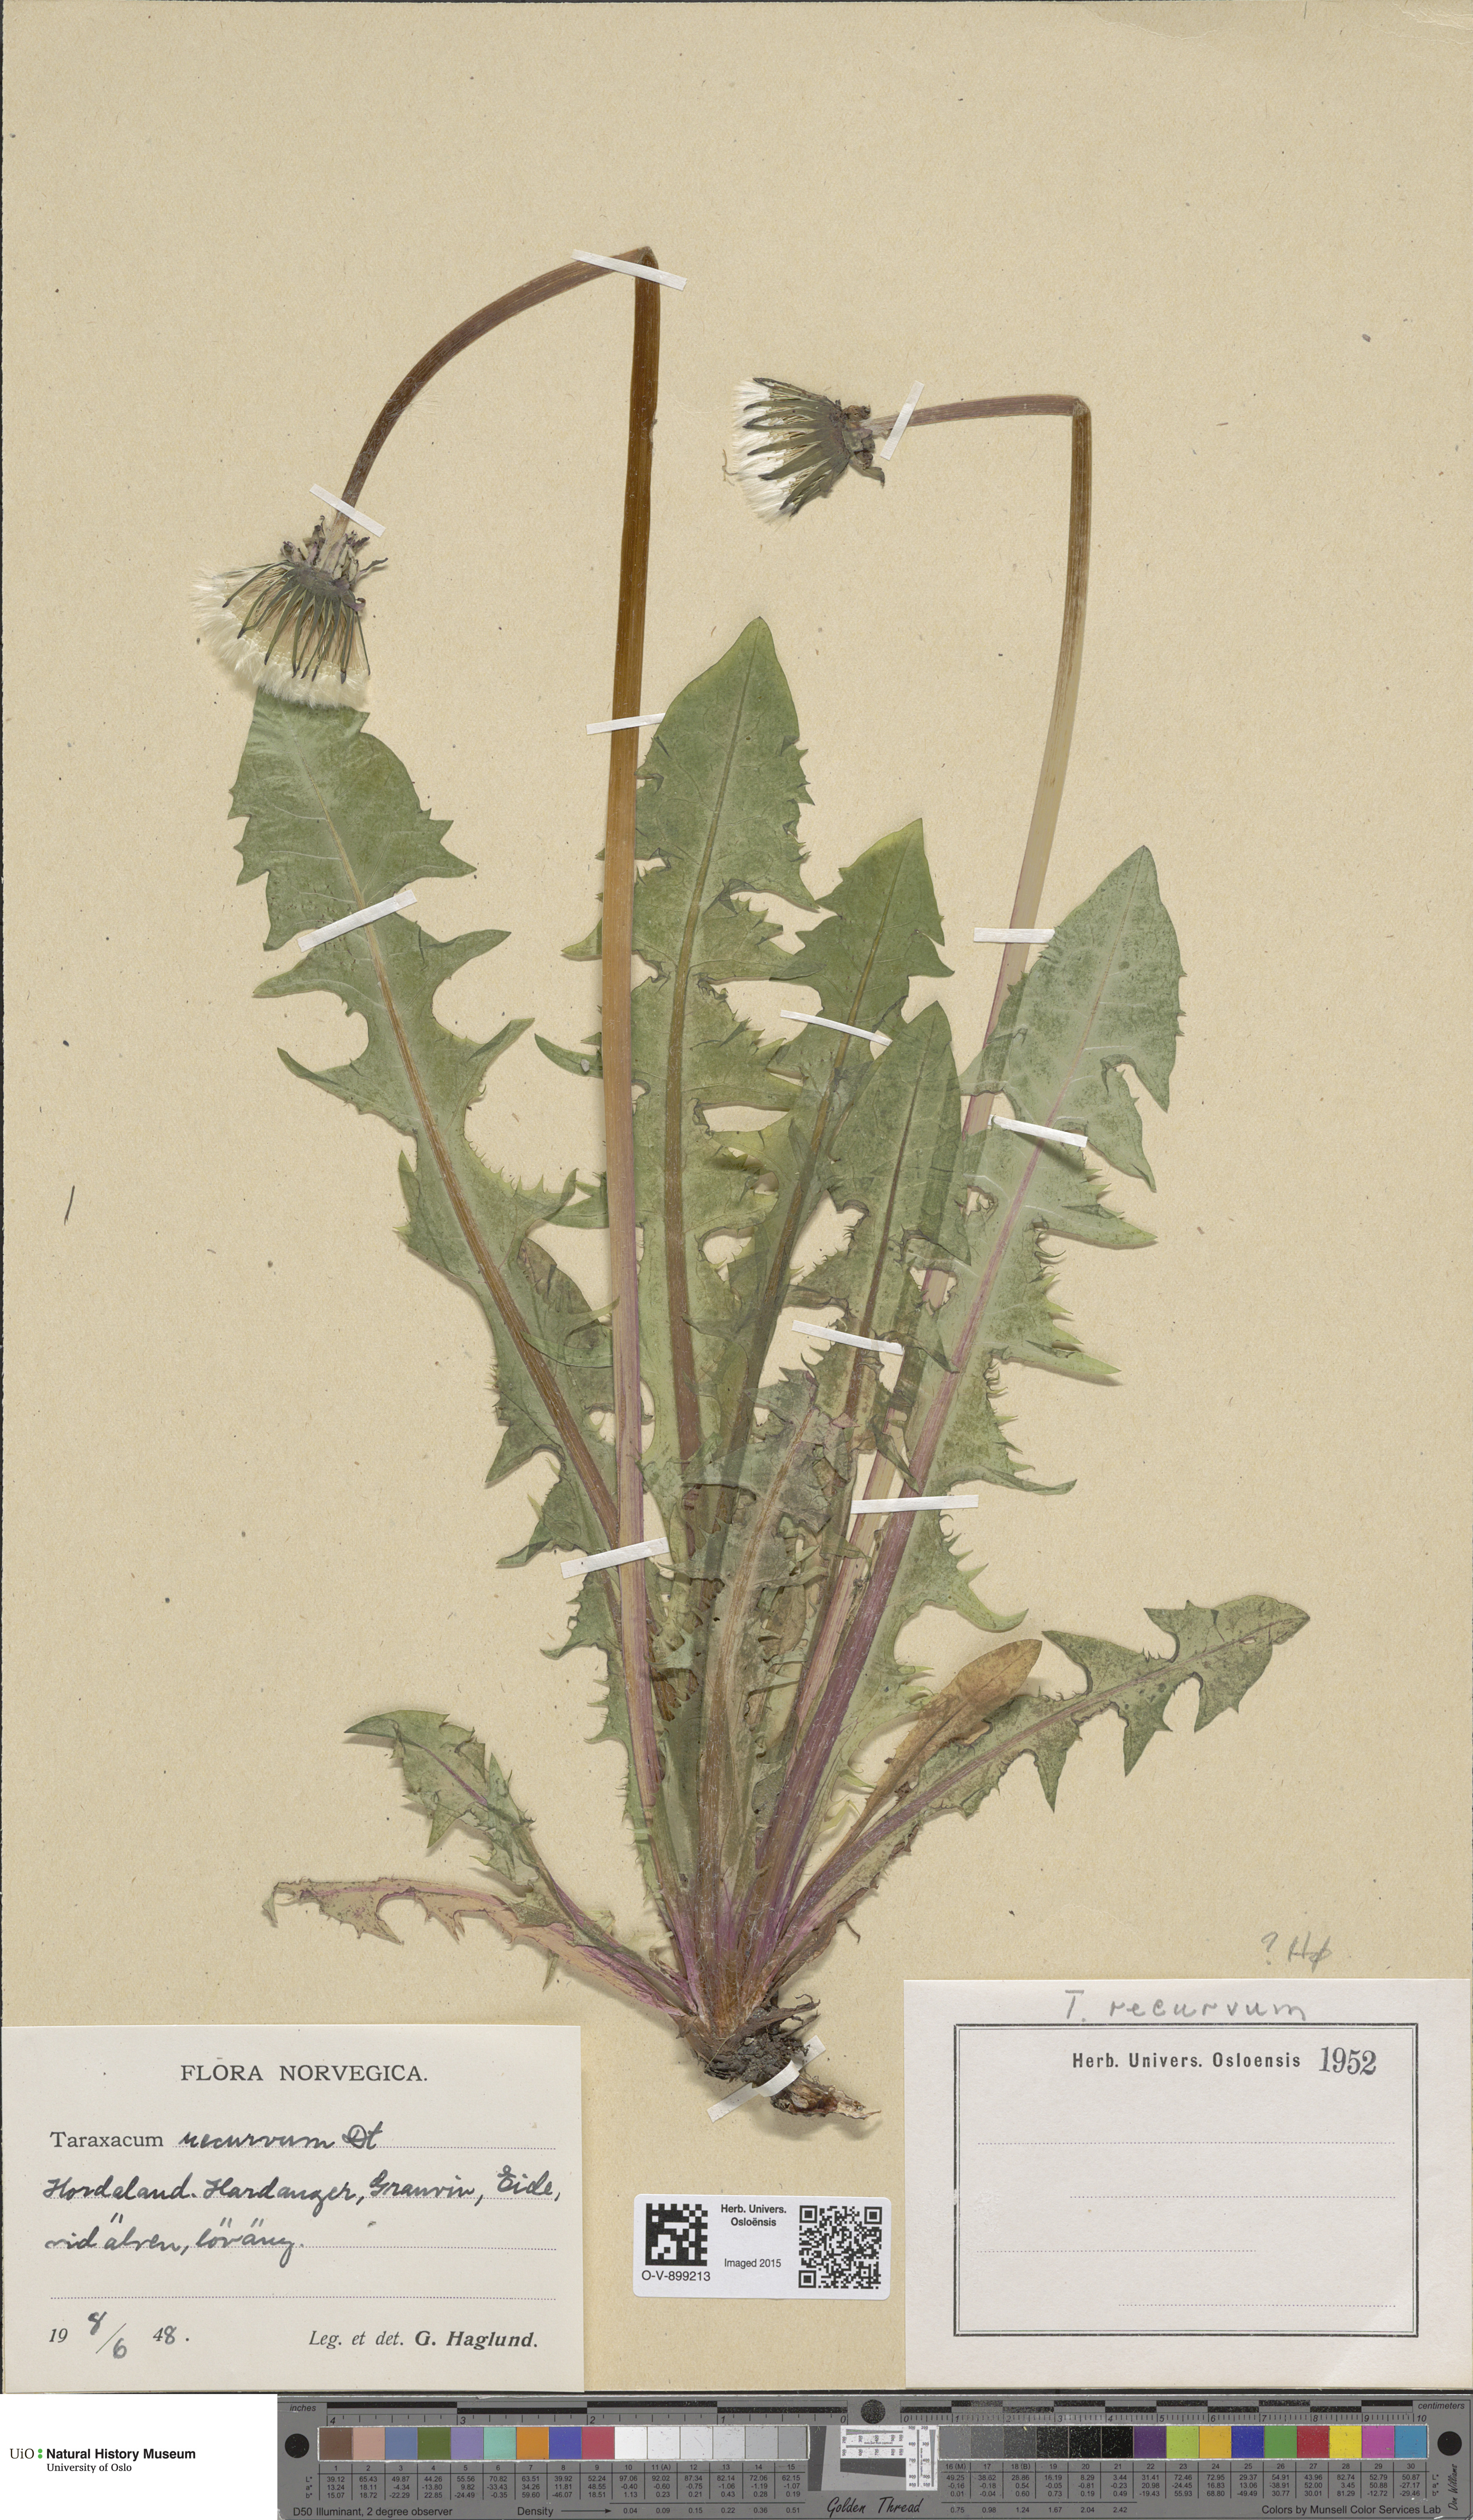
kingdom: Plantae
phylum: Tracheophyta
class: Magnoliopsida
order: Asterales
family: Asteraceae
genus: Taraxacum
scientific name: Taraxacum recurvum
